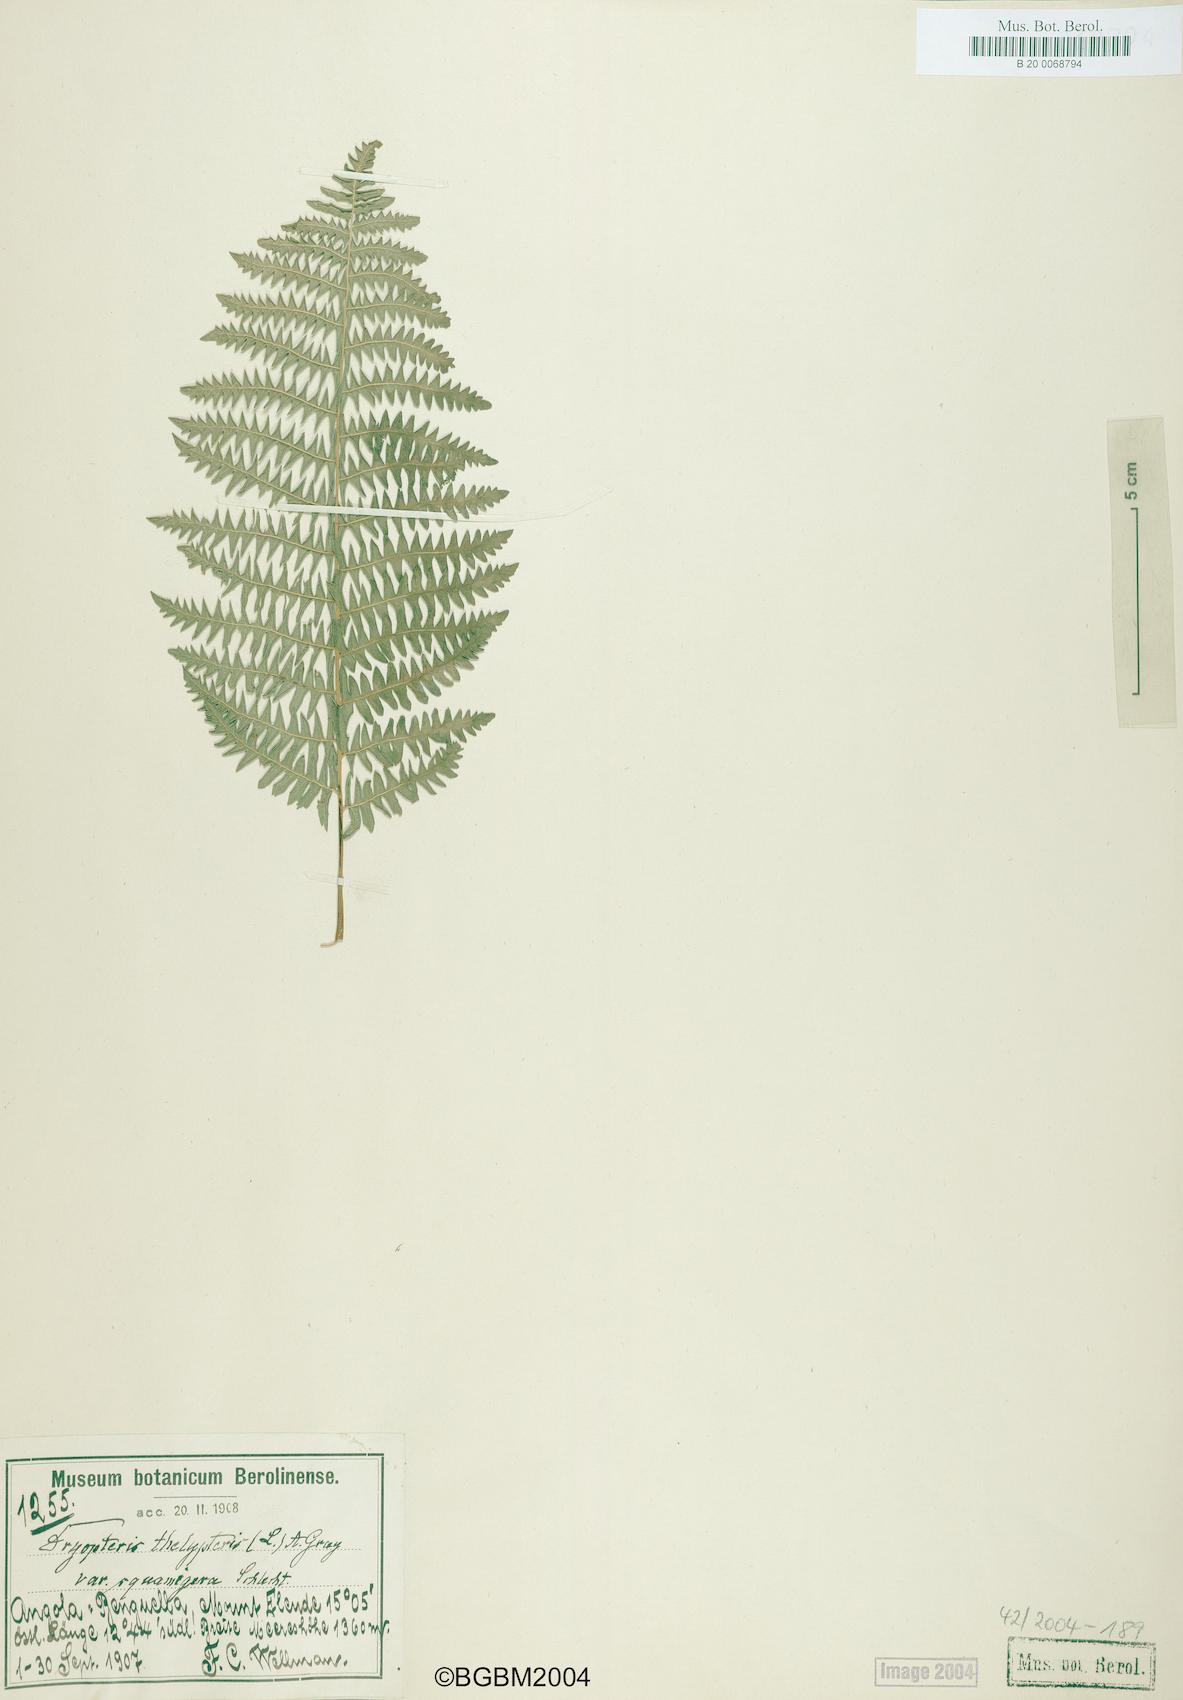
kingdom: Plantae
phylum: Tracheophyta
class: Polypodiopsida
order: Polypodiales
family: Thelypteridaceae
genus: Thelypteris
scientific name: Thelypteris confluens
